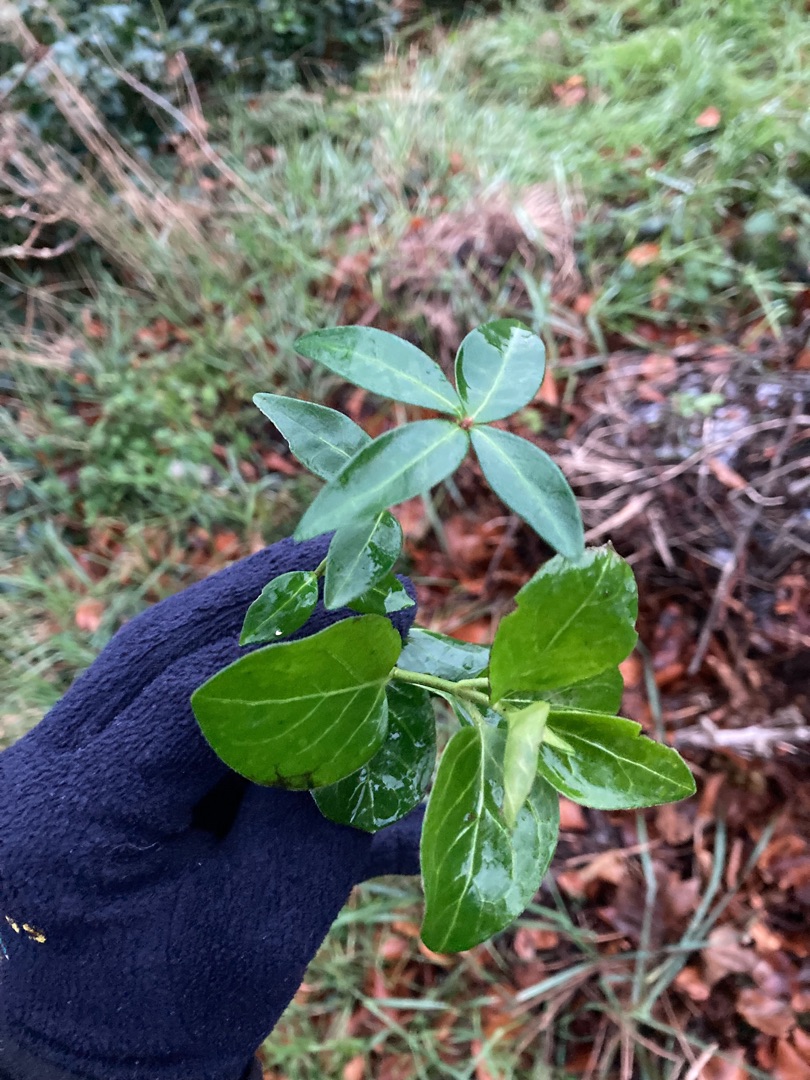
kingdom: Plantae
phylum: Tracheophyta
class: Magnoliopsida
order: Gentianales
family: Apocynaceae
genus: Vinca
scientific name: Vinca minor
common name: Liden singrøn
